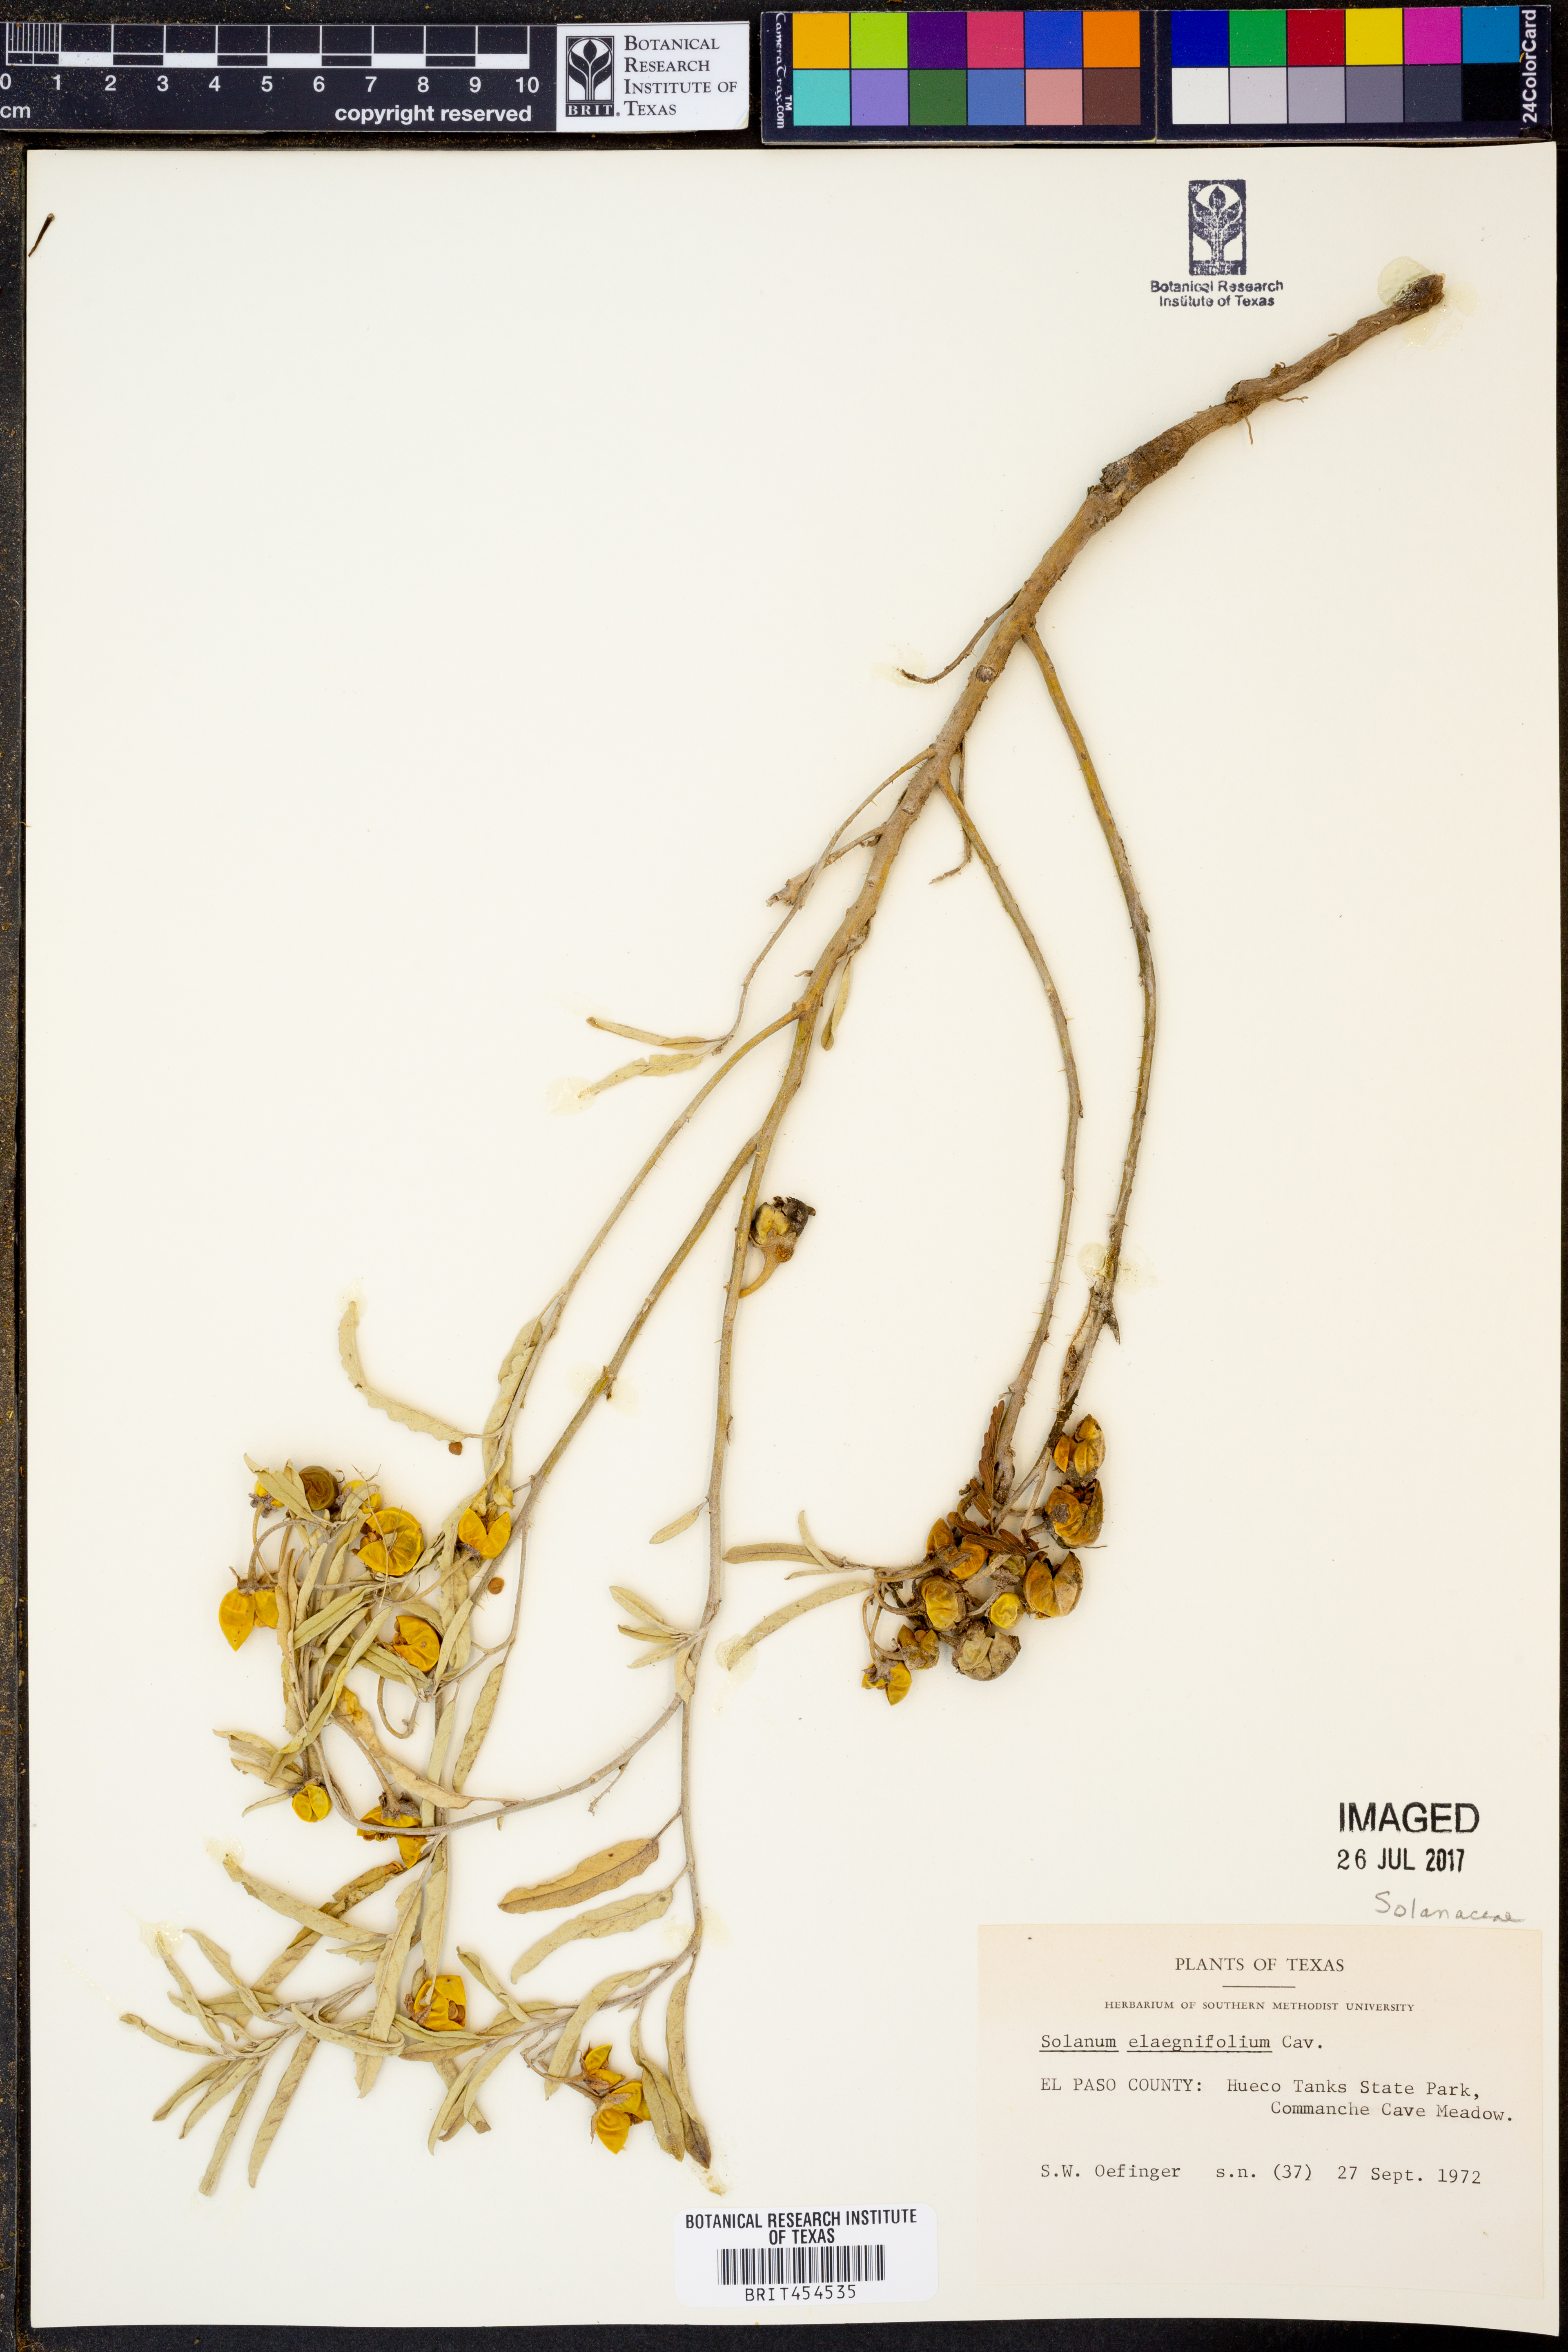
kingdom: Plantae
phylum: Tracheophyta
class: Magnoliopsida
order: Solanales
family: Solanaceae
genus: Solanum
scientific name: Solanum elaeagnifolium
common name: Silverleaf nightshade
